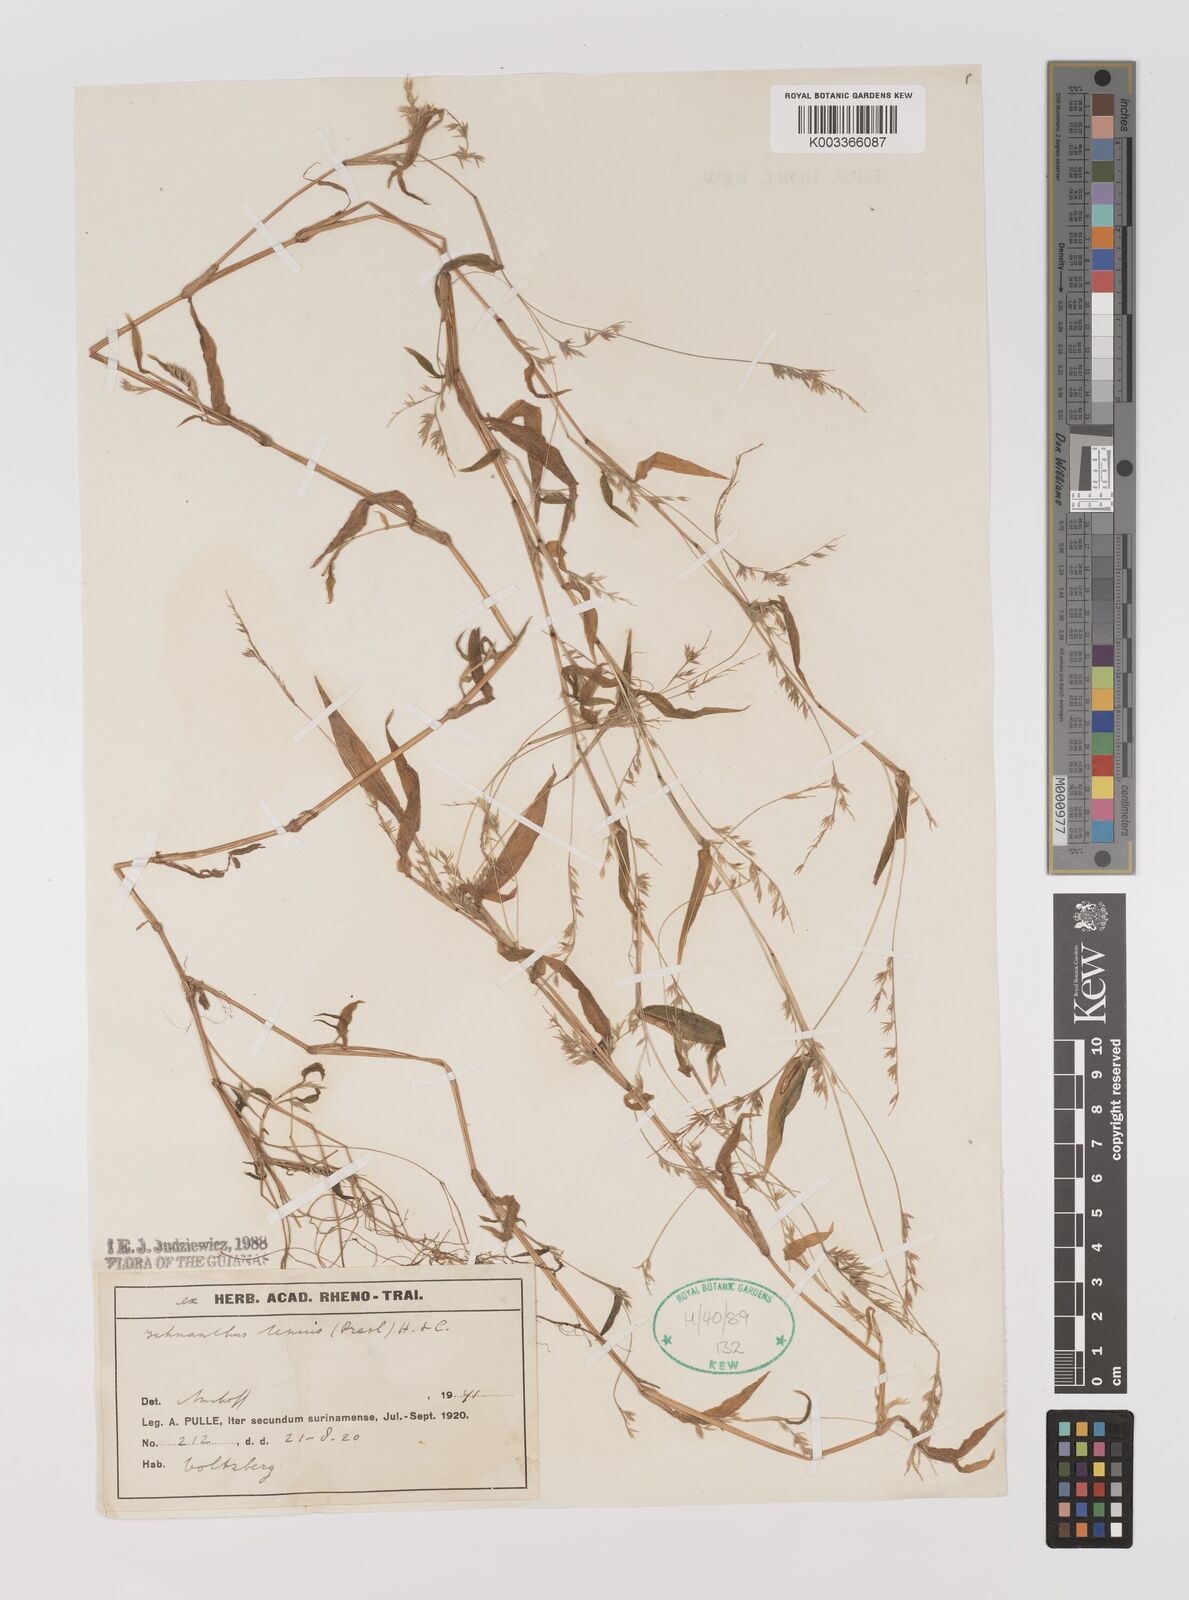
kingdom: Plantae
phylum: Tracheophyta
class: Liliopsida
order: Poales
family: Poaceae
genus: Ichnanthus
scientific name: Ichnanthus tenuis
